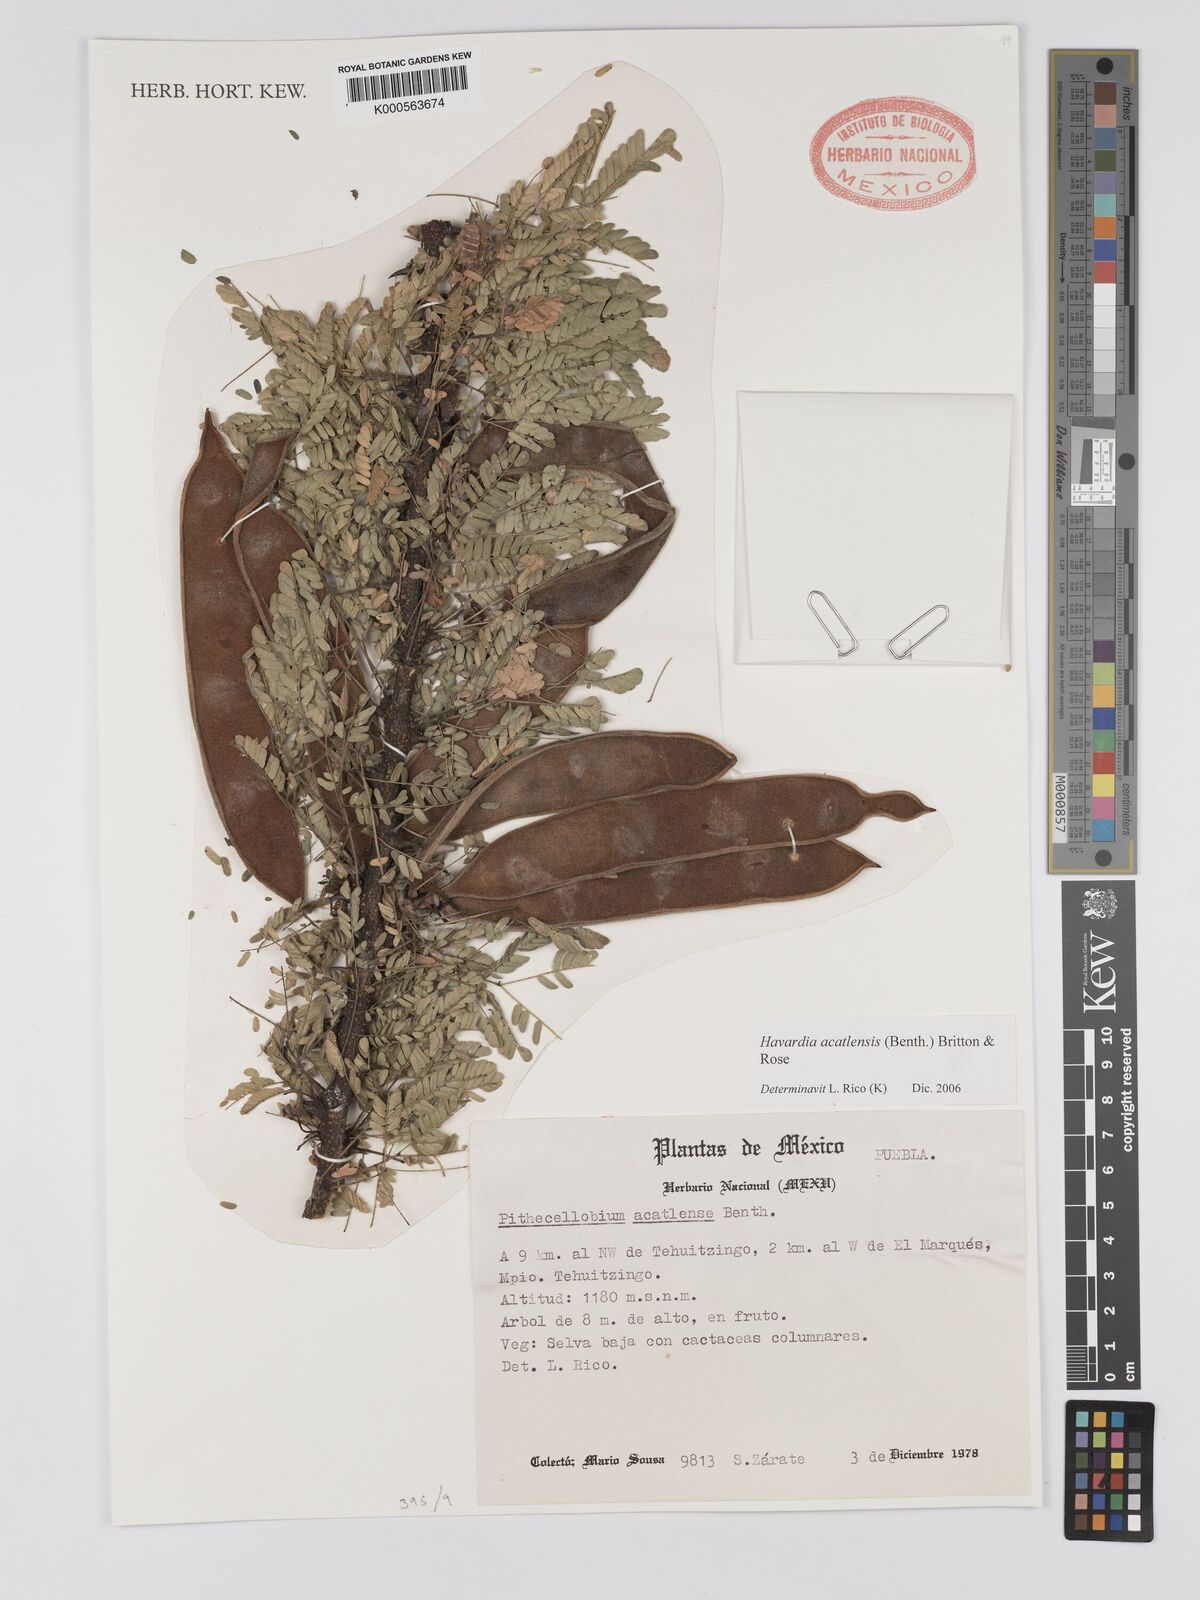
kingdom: Plantae
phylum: Tracheophyta
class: Magnoliopsida
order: Fabales
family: Fabaceae
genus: Havardia
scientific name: Havardia acatlensis
